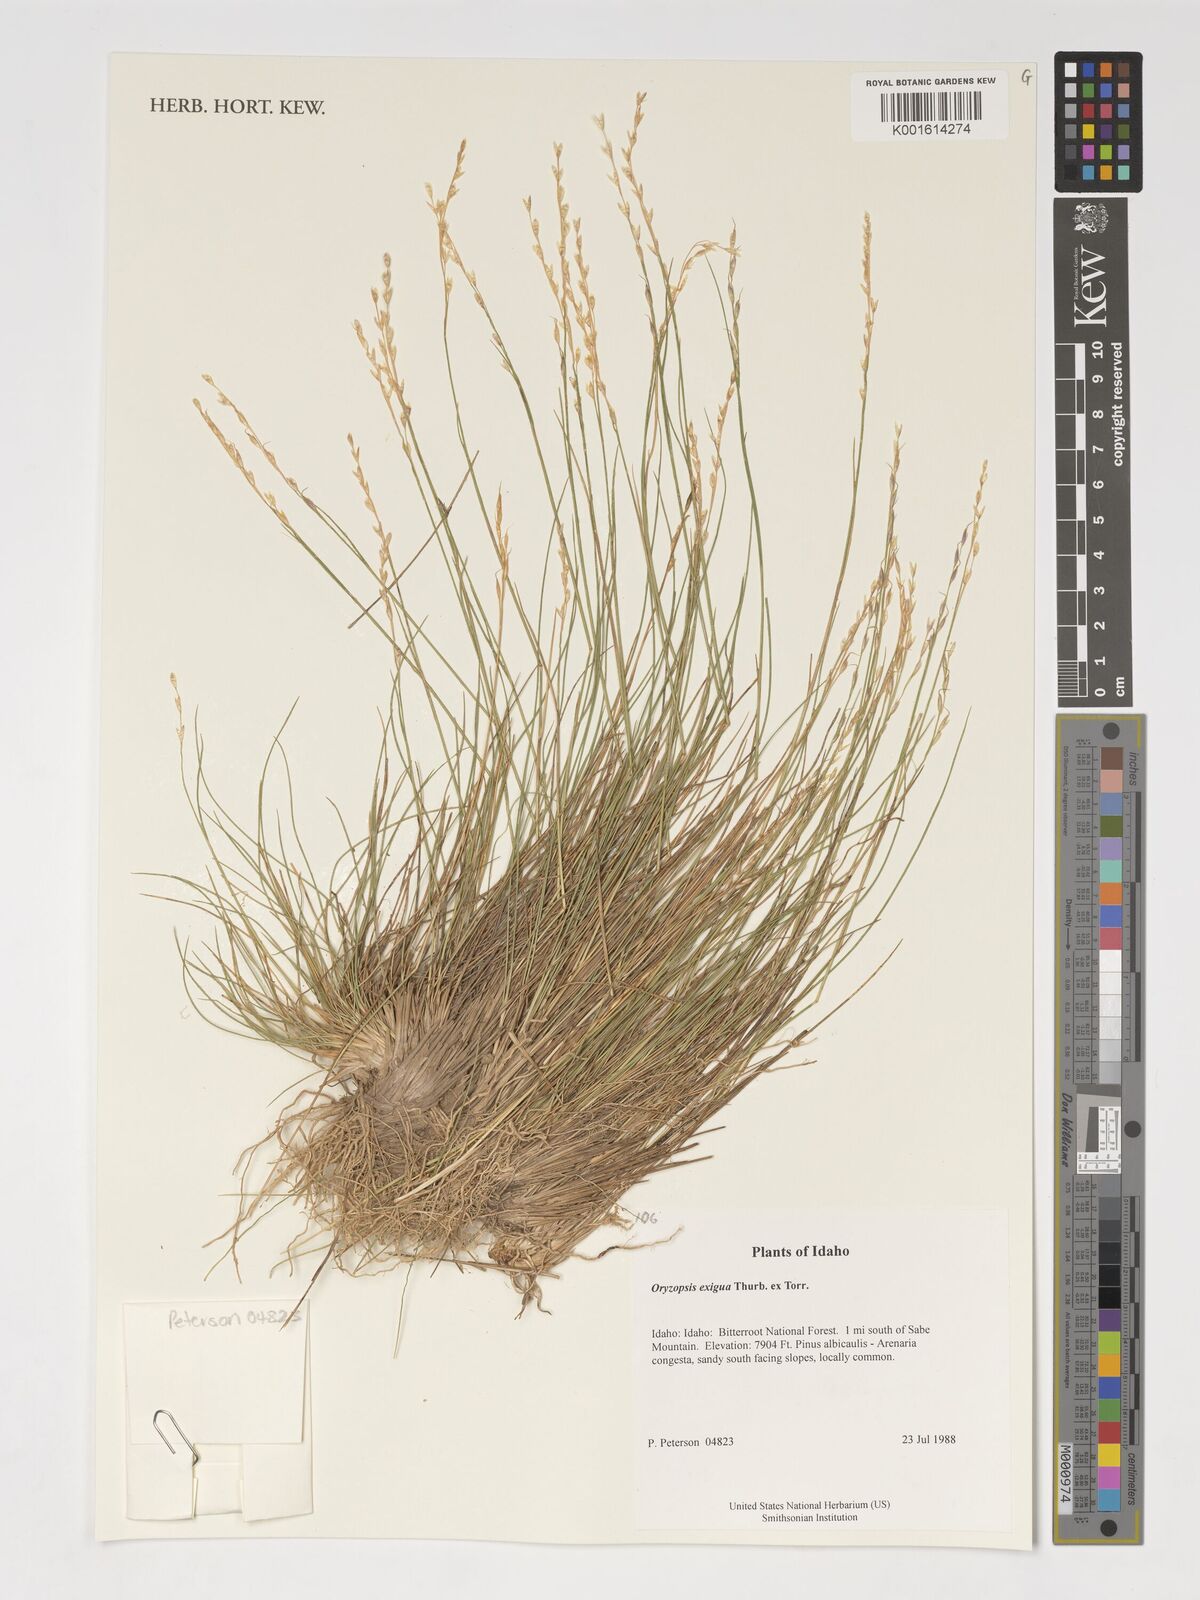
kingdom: Plantae
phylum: Tracheophyta
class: Liliopsida
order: Poales
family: Poaceae
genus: Piptatheropsis
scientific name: Piptatheropsis exigua
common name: Little mountain ricegrass
